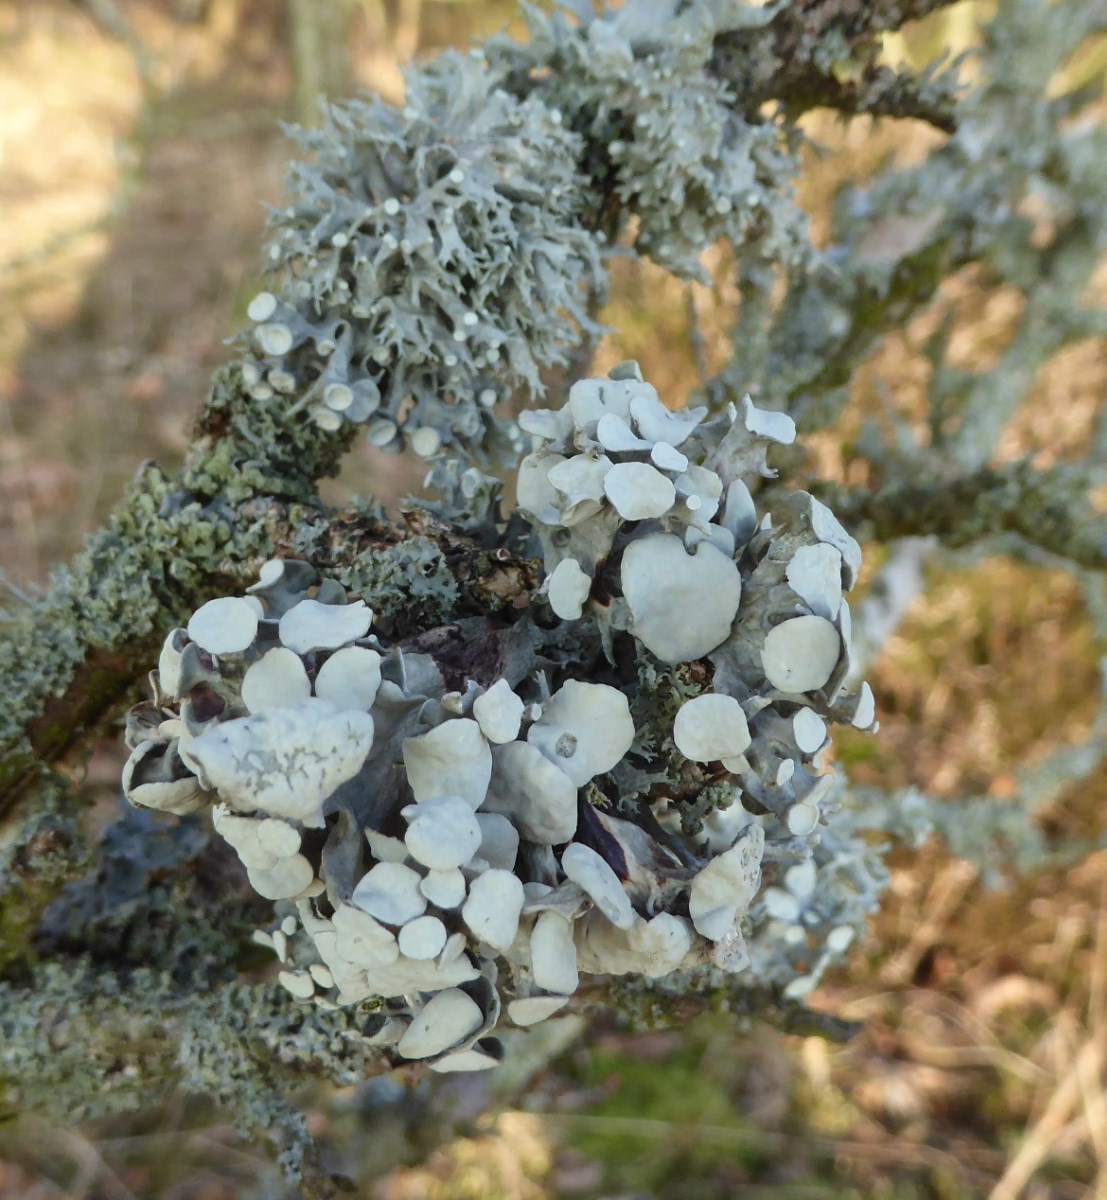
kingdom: Fungi
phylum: Ascomycota
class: Lecanoromycetes
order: Lecanorales
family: Ramalinaceae
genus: Ramalina
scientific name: Ramalina fastigiata
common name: tue-grenlav
